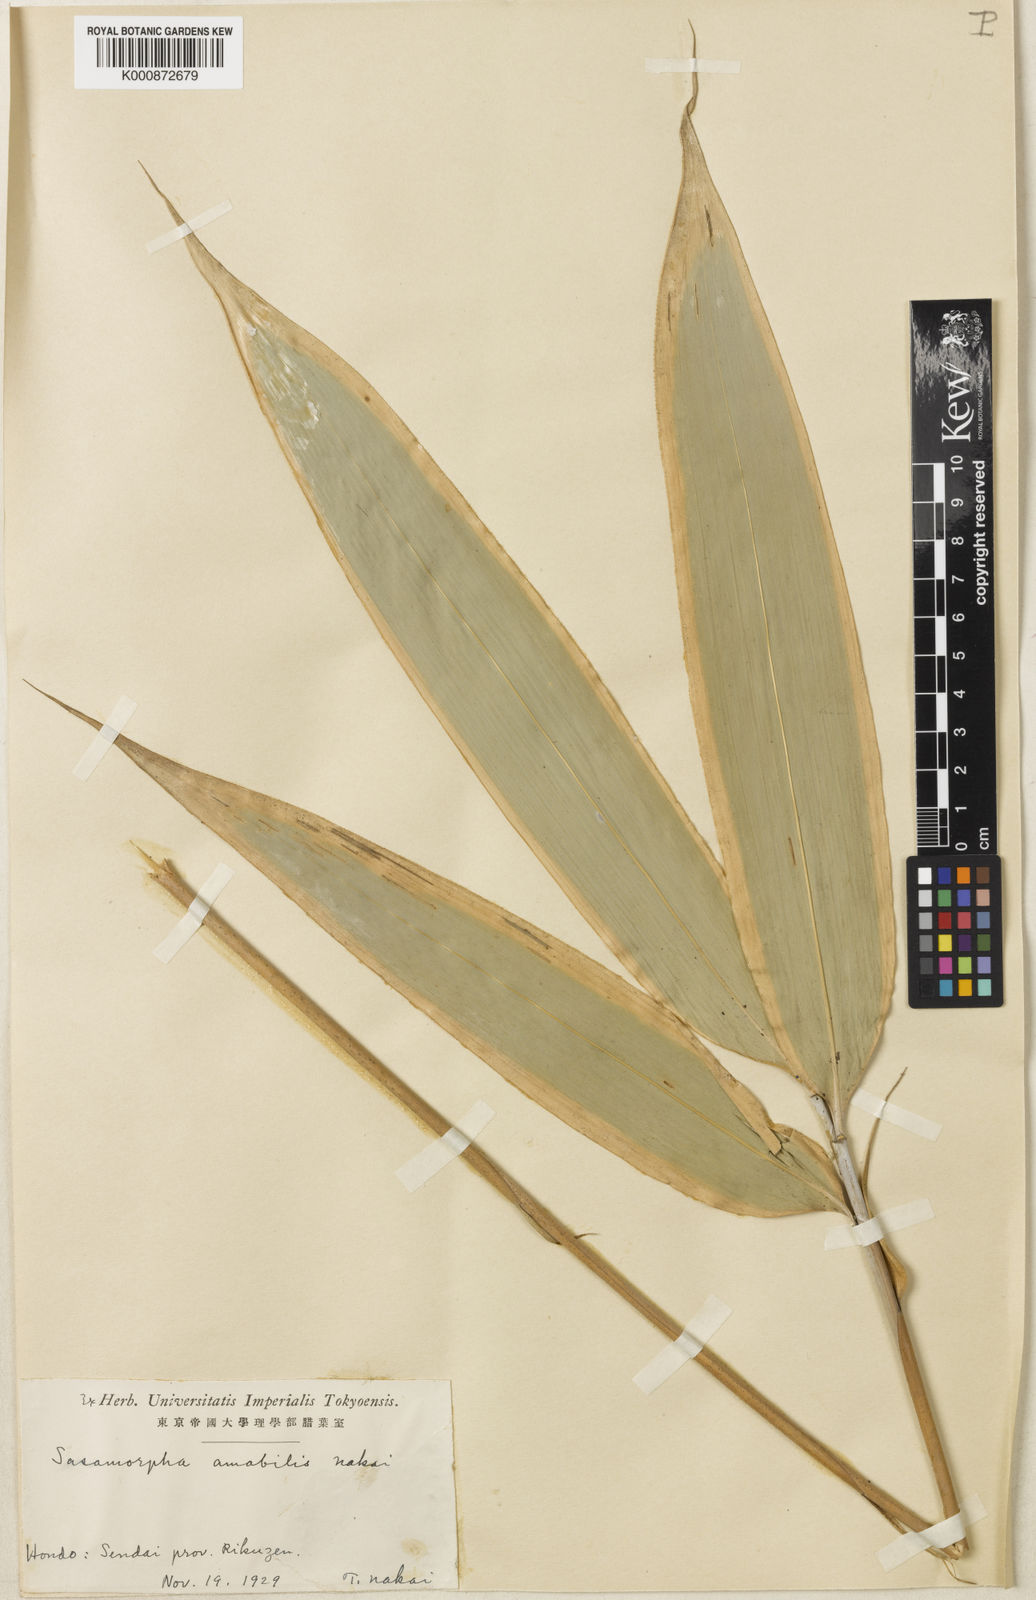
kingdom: Plantae
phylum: Tracheophyta
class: Liliopsida
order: Poales
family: Poaceae
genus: Sasamorpha
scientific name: Sasamorpha borealis
